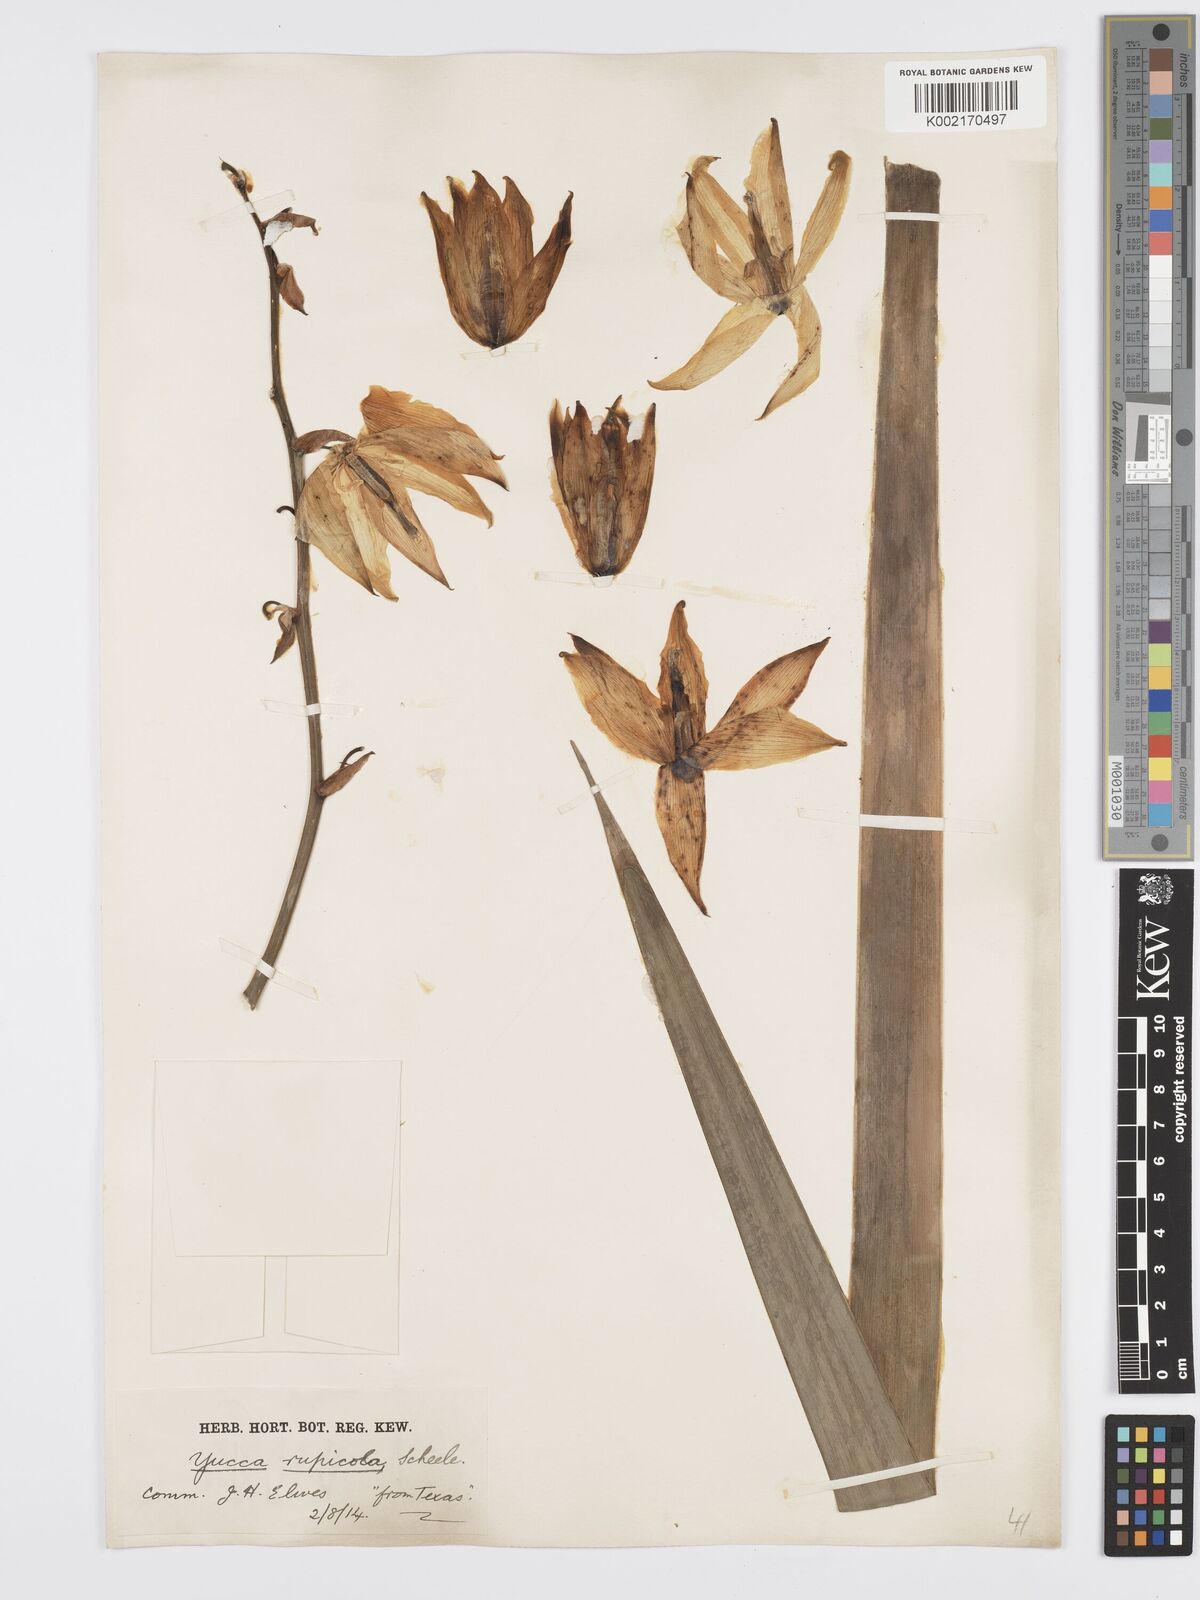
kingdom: Plantae
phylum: Tracheophyta
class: Liliopsida
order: Asparagales
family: Asparagaceae
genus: Yucca
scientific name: Yucca rupicola
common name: Twisted-leaf spanish-dagger
